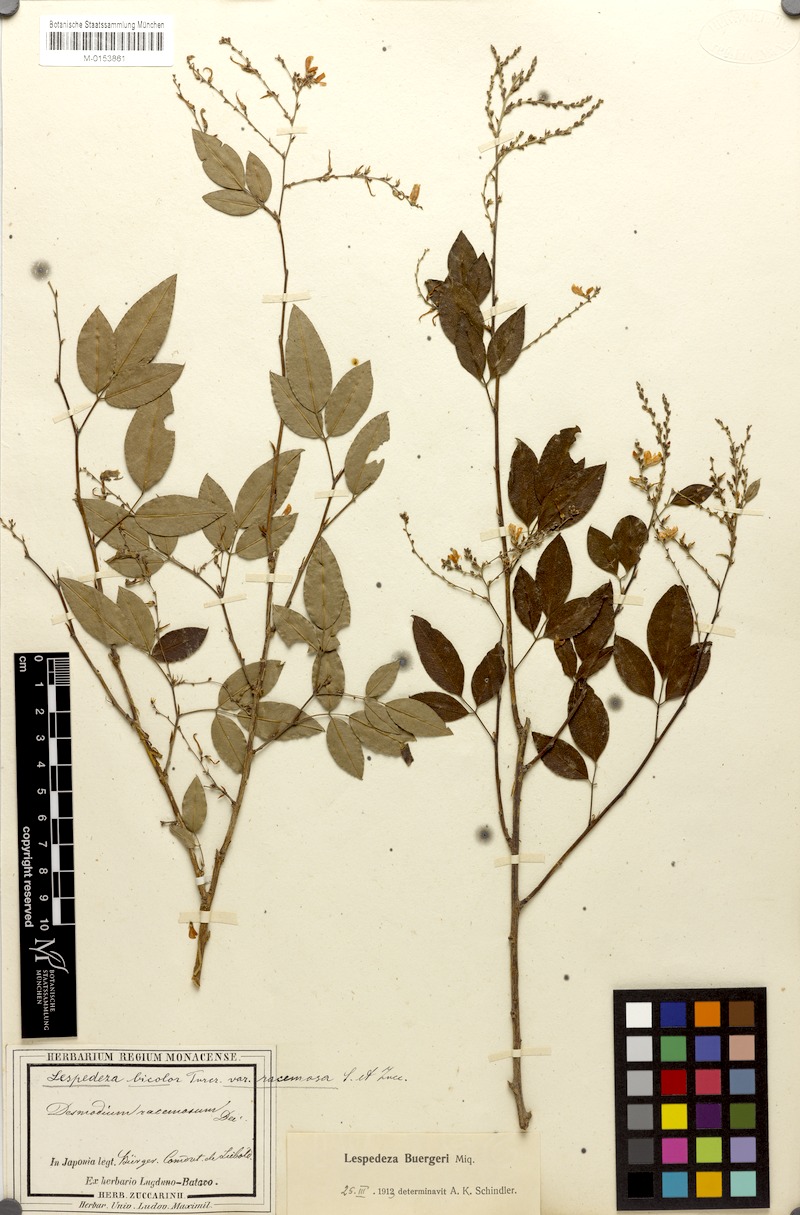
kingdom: Plantae
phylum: Tracheophyta
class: Magnoliopsida
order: Fabales
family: Fabaceae
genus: Lespedeza
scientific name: Lespedeza buergeri
